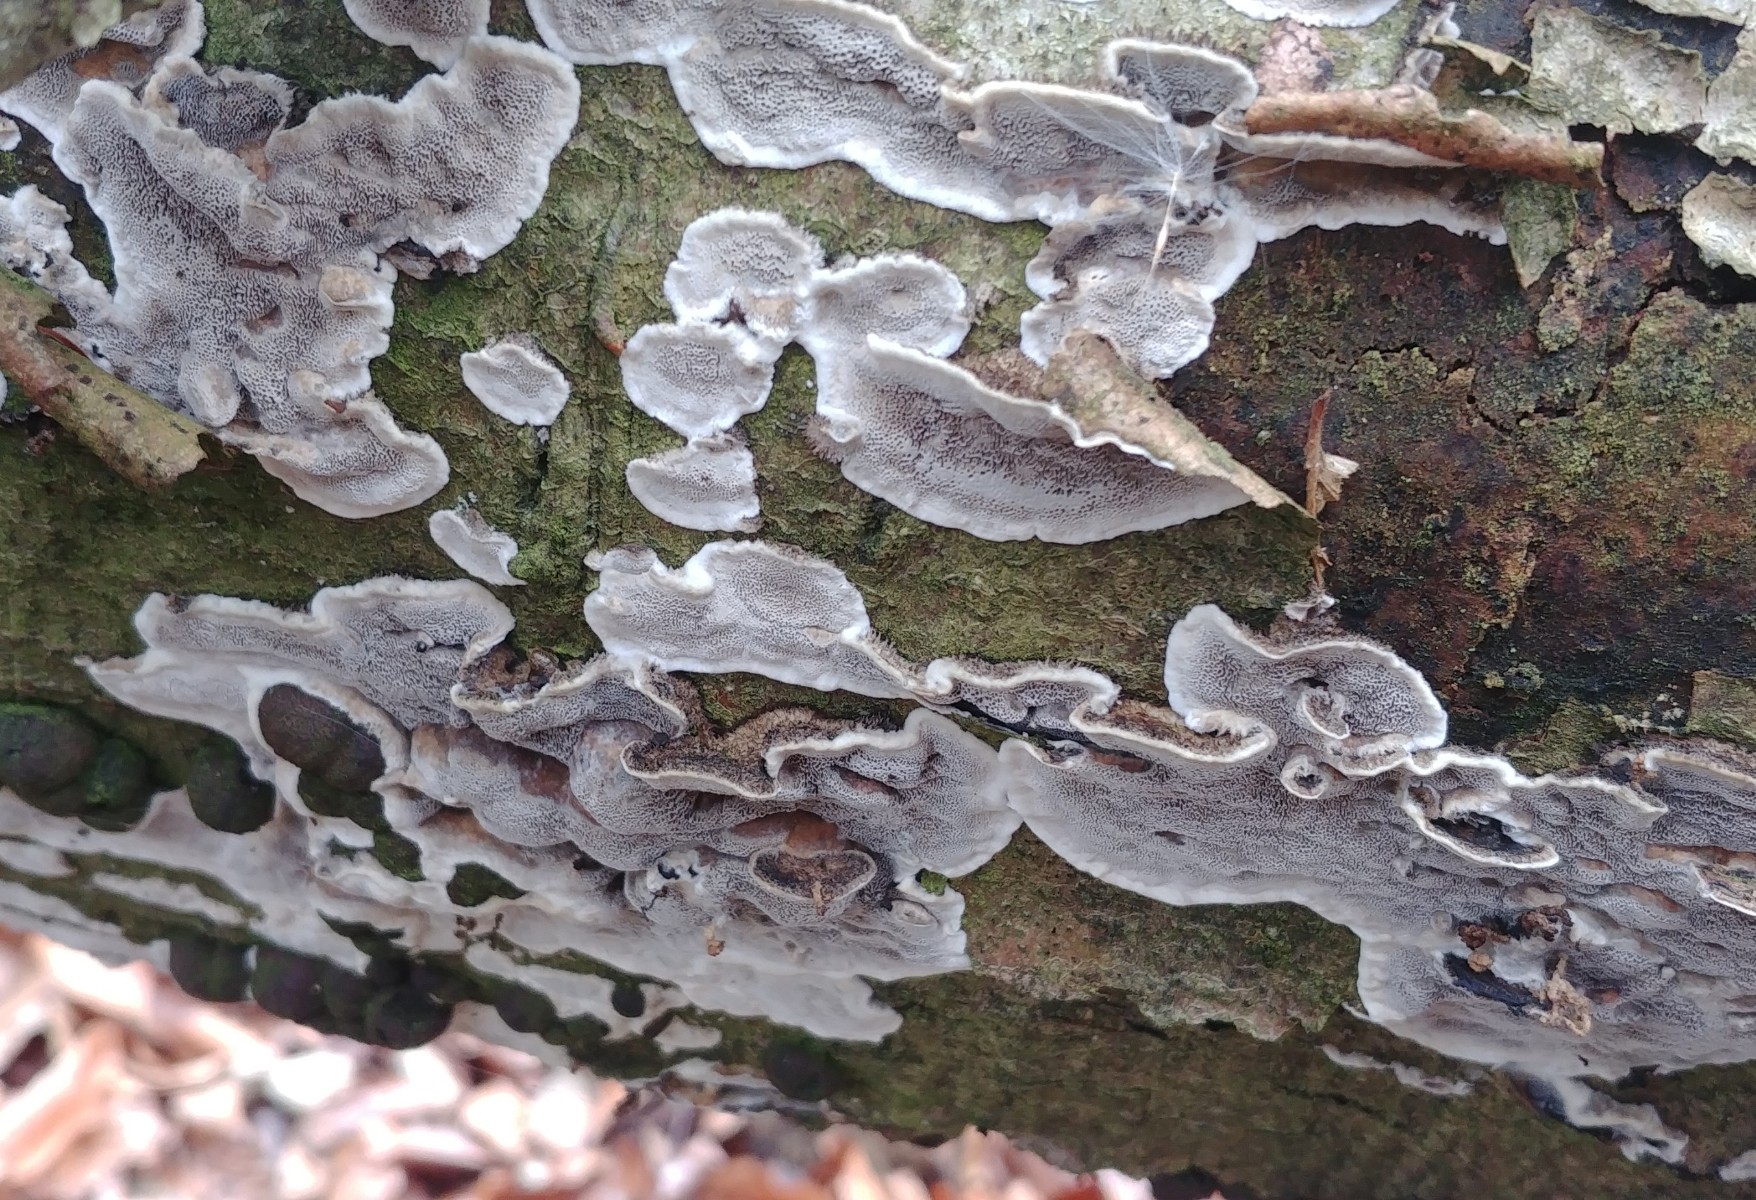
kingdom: Fungi
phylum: Basidiomycota
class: Agaricomycetes
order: Polyporales
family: Phanerochaetaceae
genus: Bjerkandera
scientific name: Bjerkandera adusta
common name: sveden sodporesvamp
